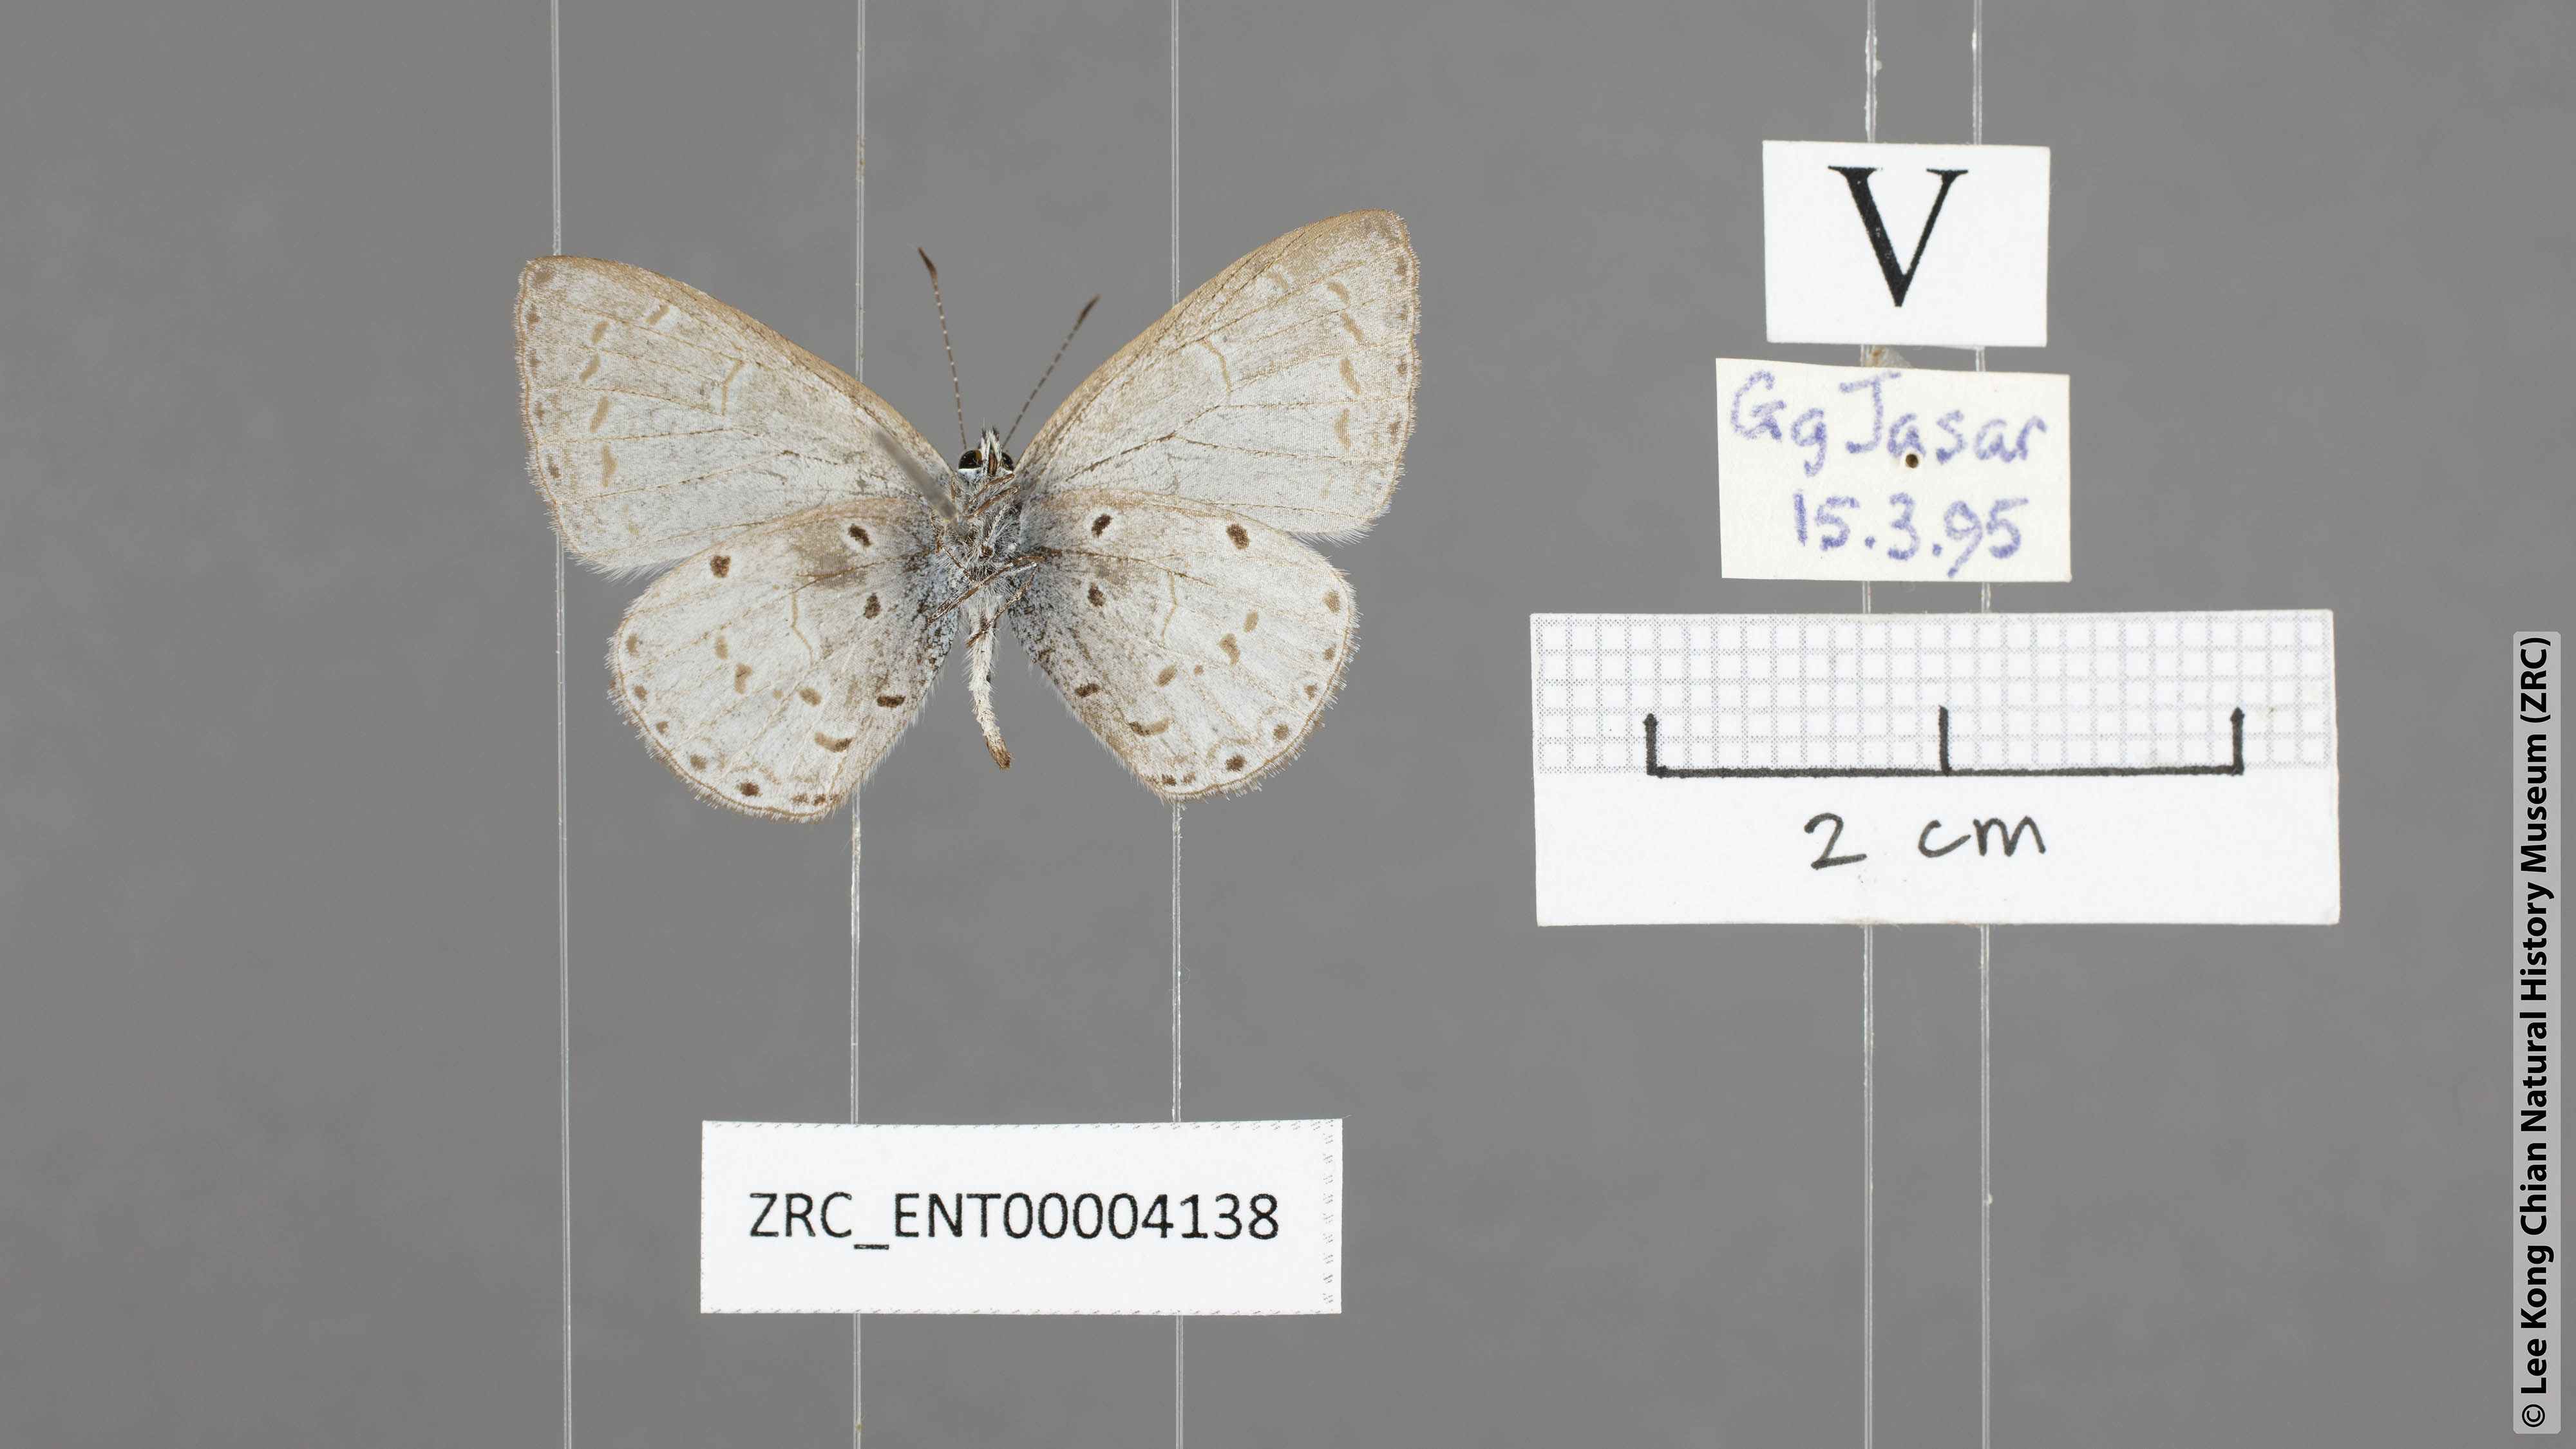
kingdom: Animalia
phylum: Arthropoda
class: Insecta
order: Lepidoptera
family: Lycaenidae
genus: Celastrina
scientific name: Celastrina lavendularis
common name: Plain hedge blue
